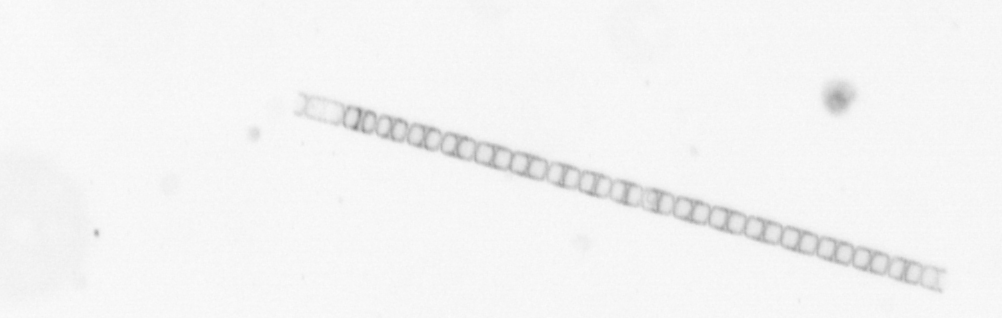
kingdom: Chromista
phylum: Ochrophyta
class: Bacillariophyceae
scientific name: Bacillariophyceae
